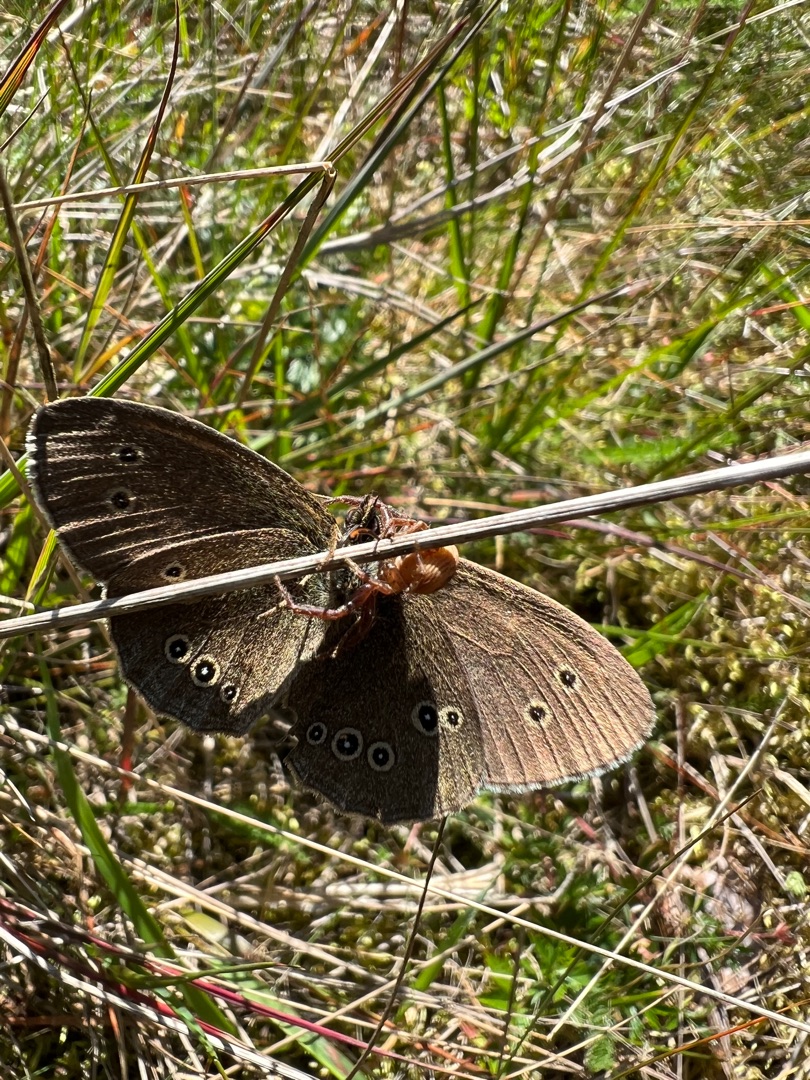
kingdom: Animalia
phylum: Arthropoda
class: Insecta
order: Lepidoptera
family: Nymphalidae
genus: Aphantopus
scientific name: Aphantopus hyperantus
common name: Engrandøje
